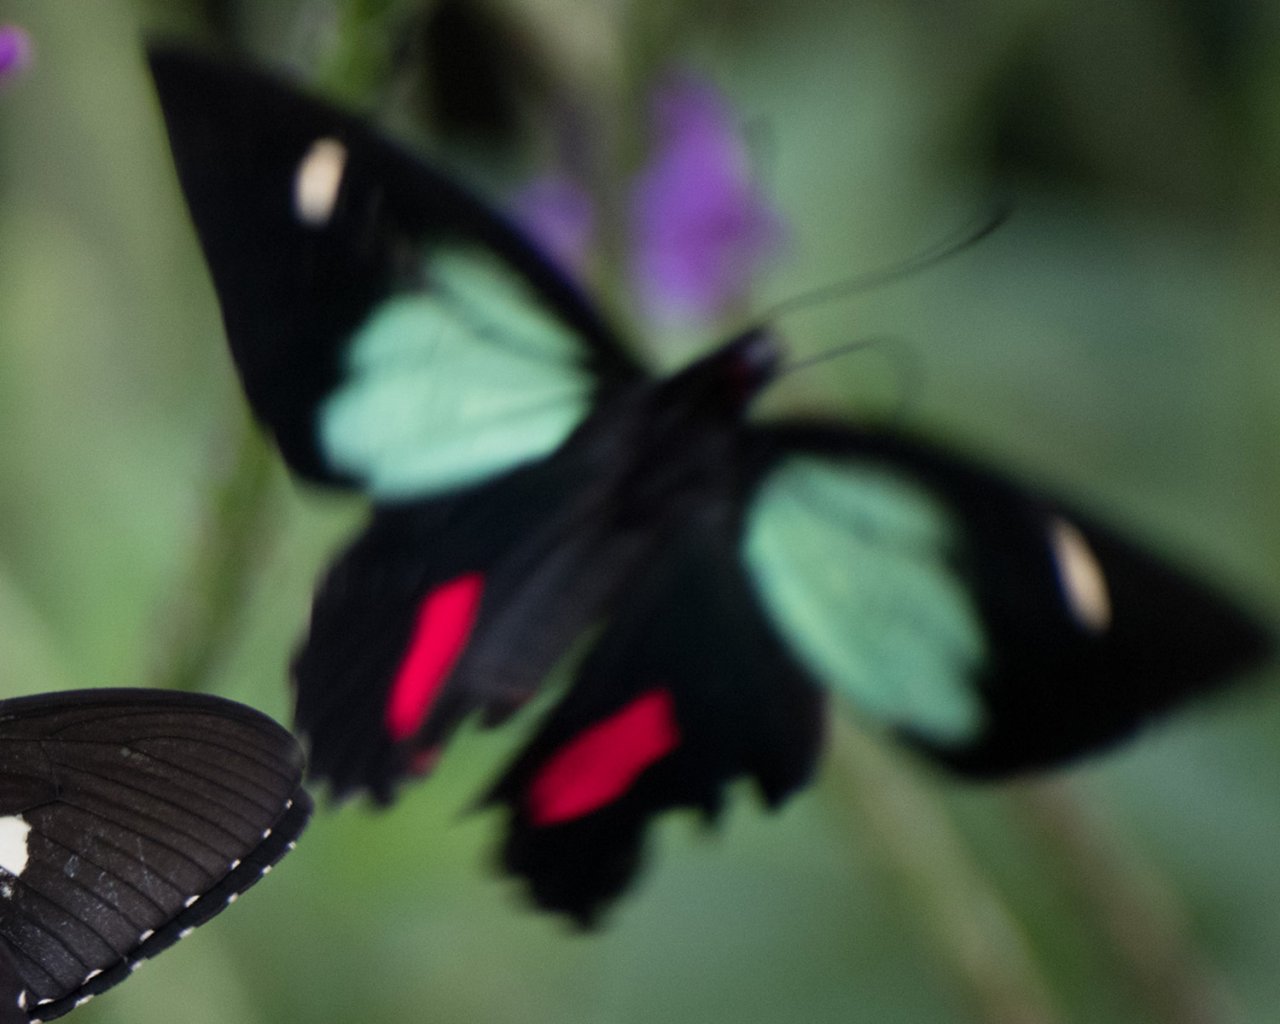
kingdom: Animalia
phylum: Arthropoda
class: Insecta
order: Lepidoptera
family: Papilionidae
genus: Parides
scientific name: Parides childrenae
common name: Green-celled Cattleheart
